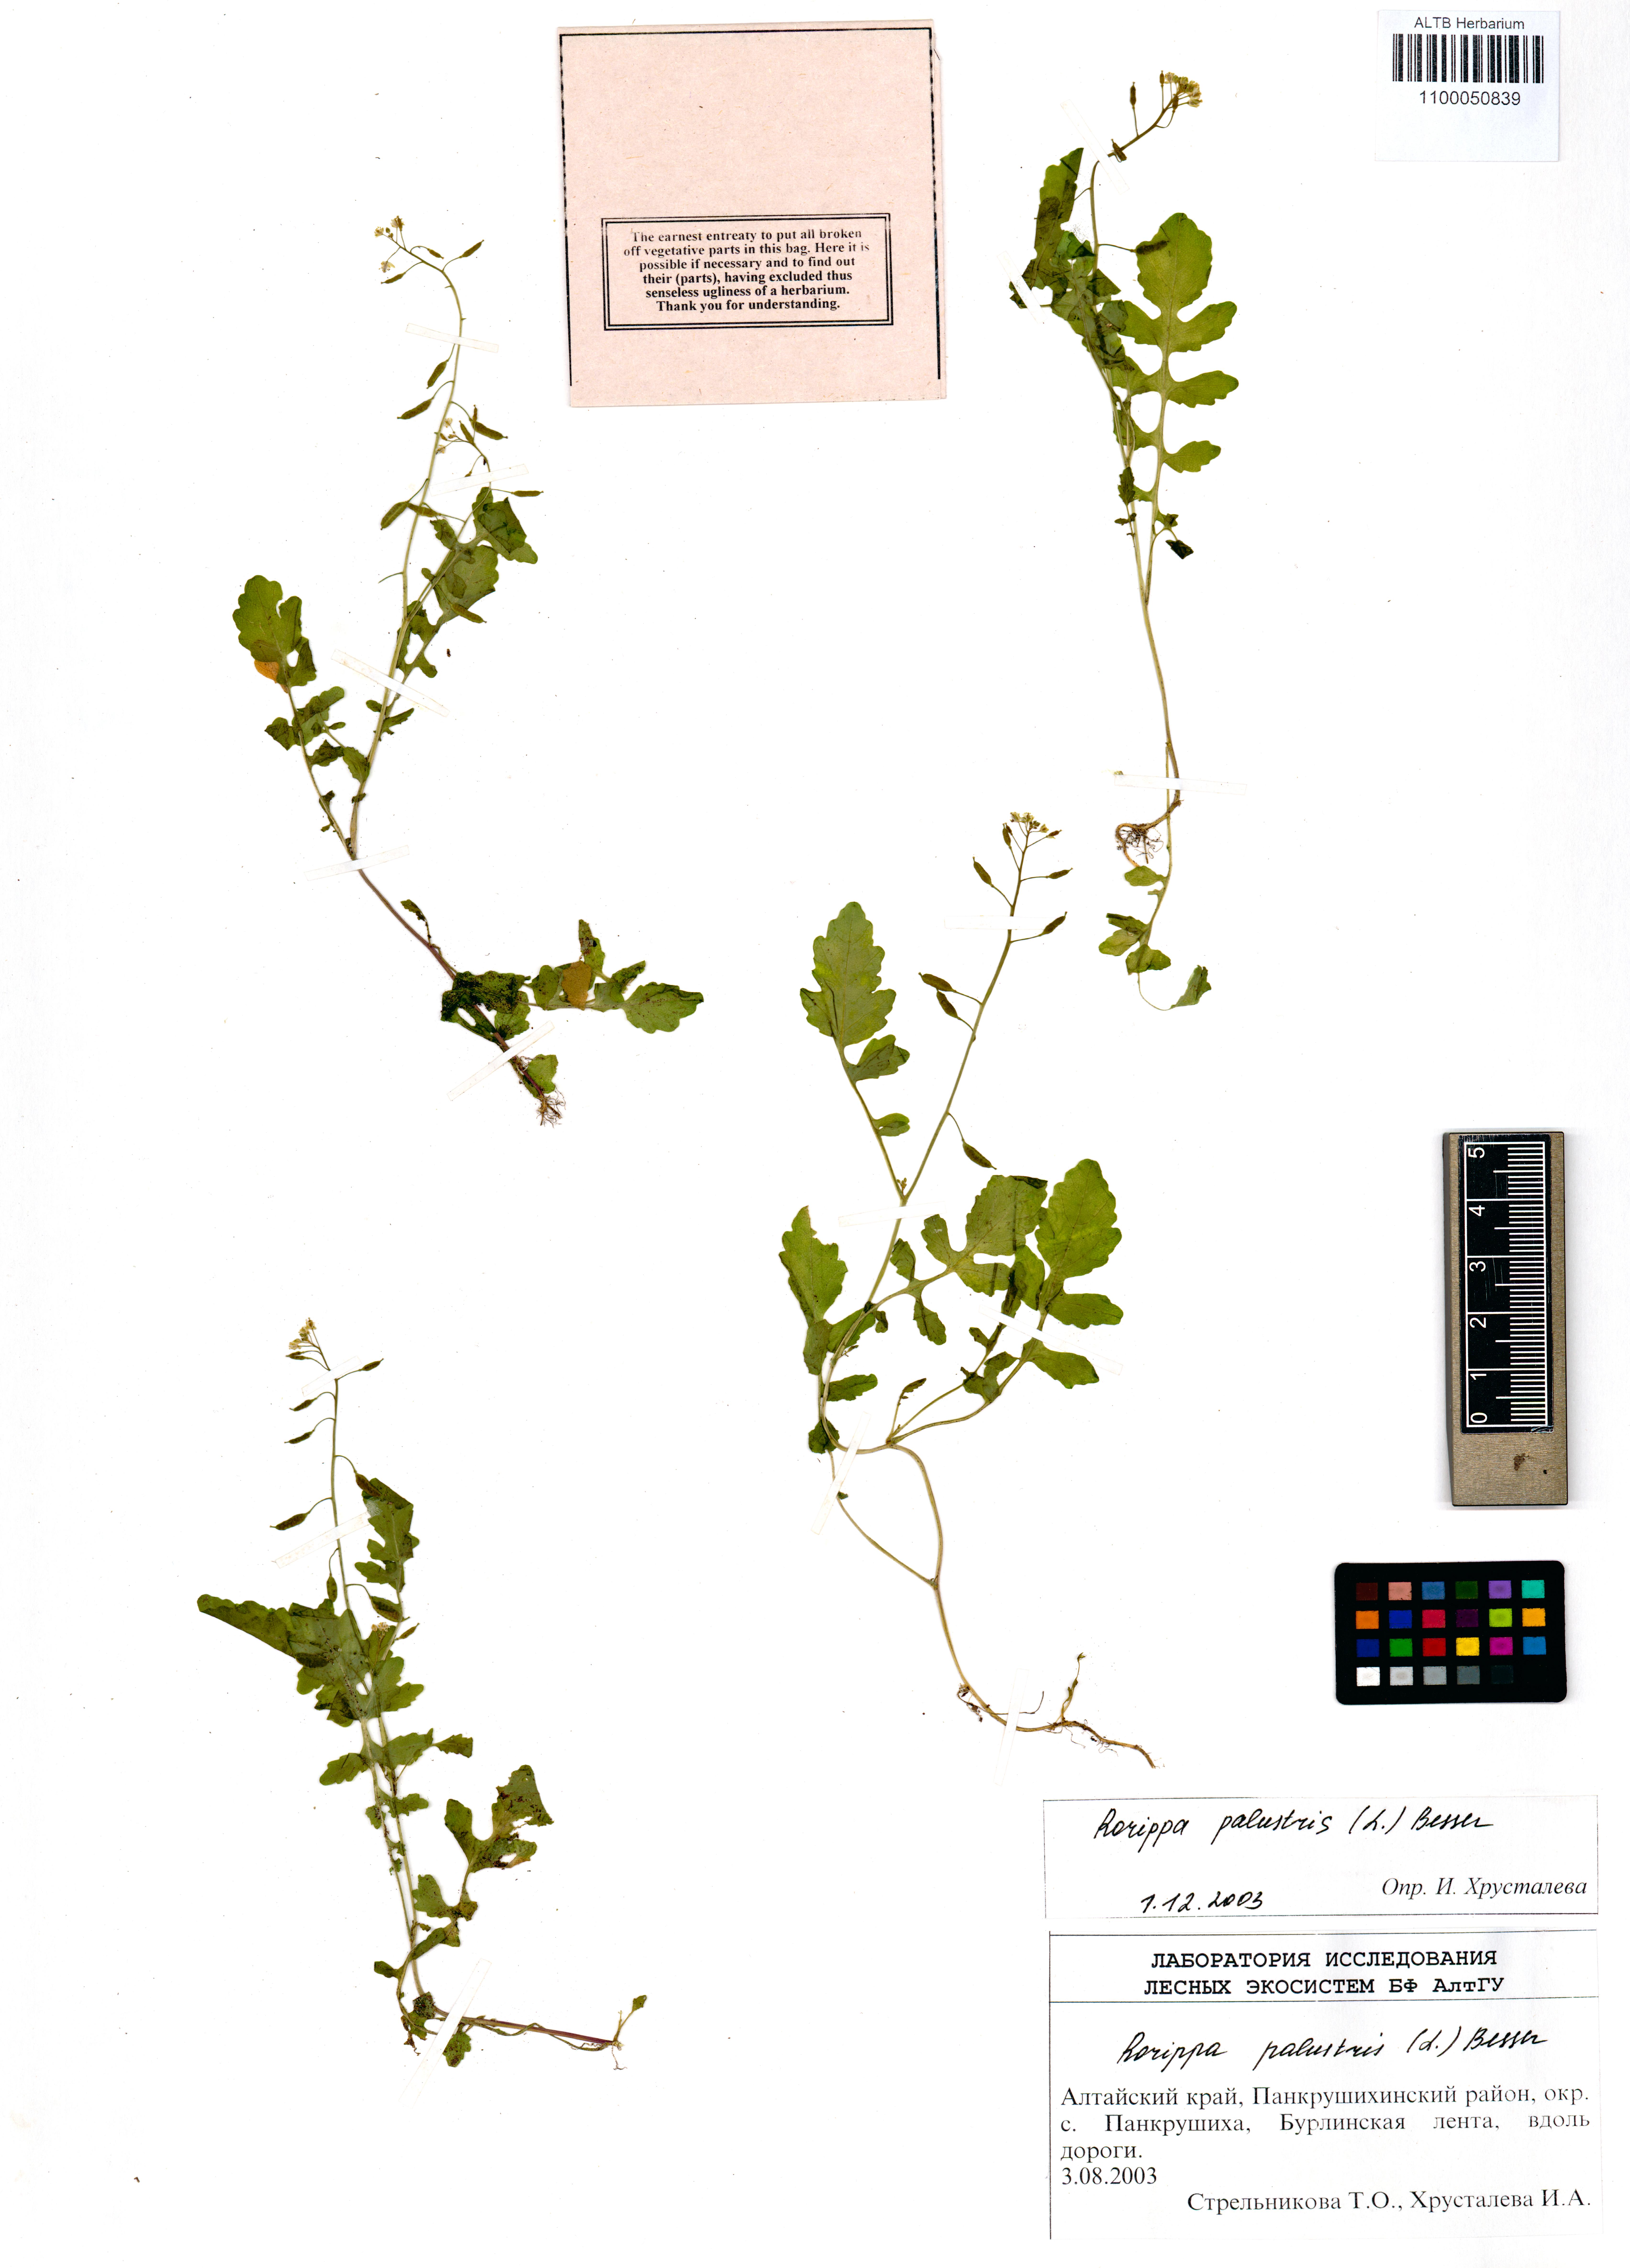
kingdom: Plantae
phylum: Tracheophyta
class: Magnoliopsida
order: Brassicales
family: Brassicaceae
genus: Rorippa
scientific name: Rorippa palustris
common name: Marsh yellow-cress
